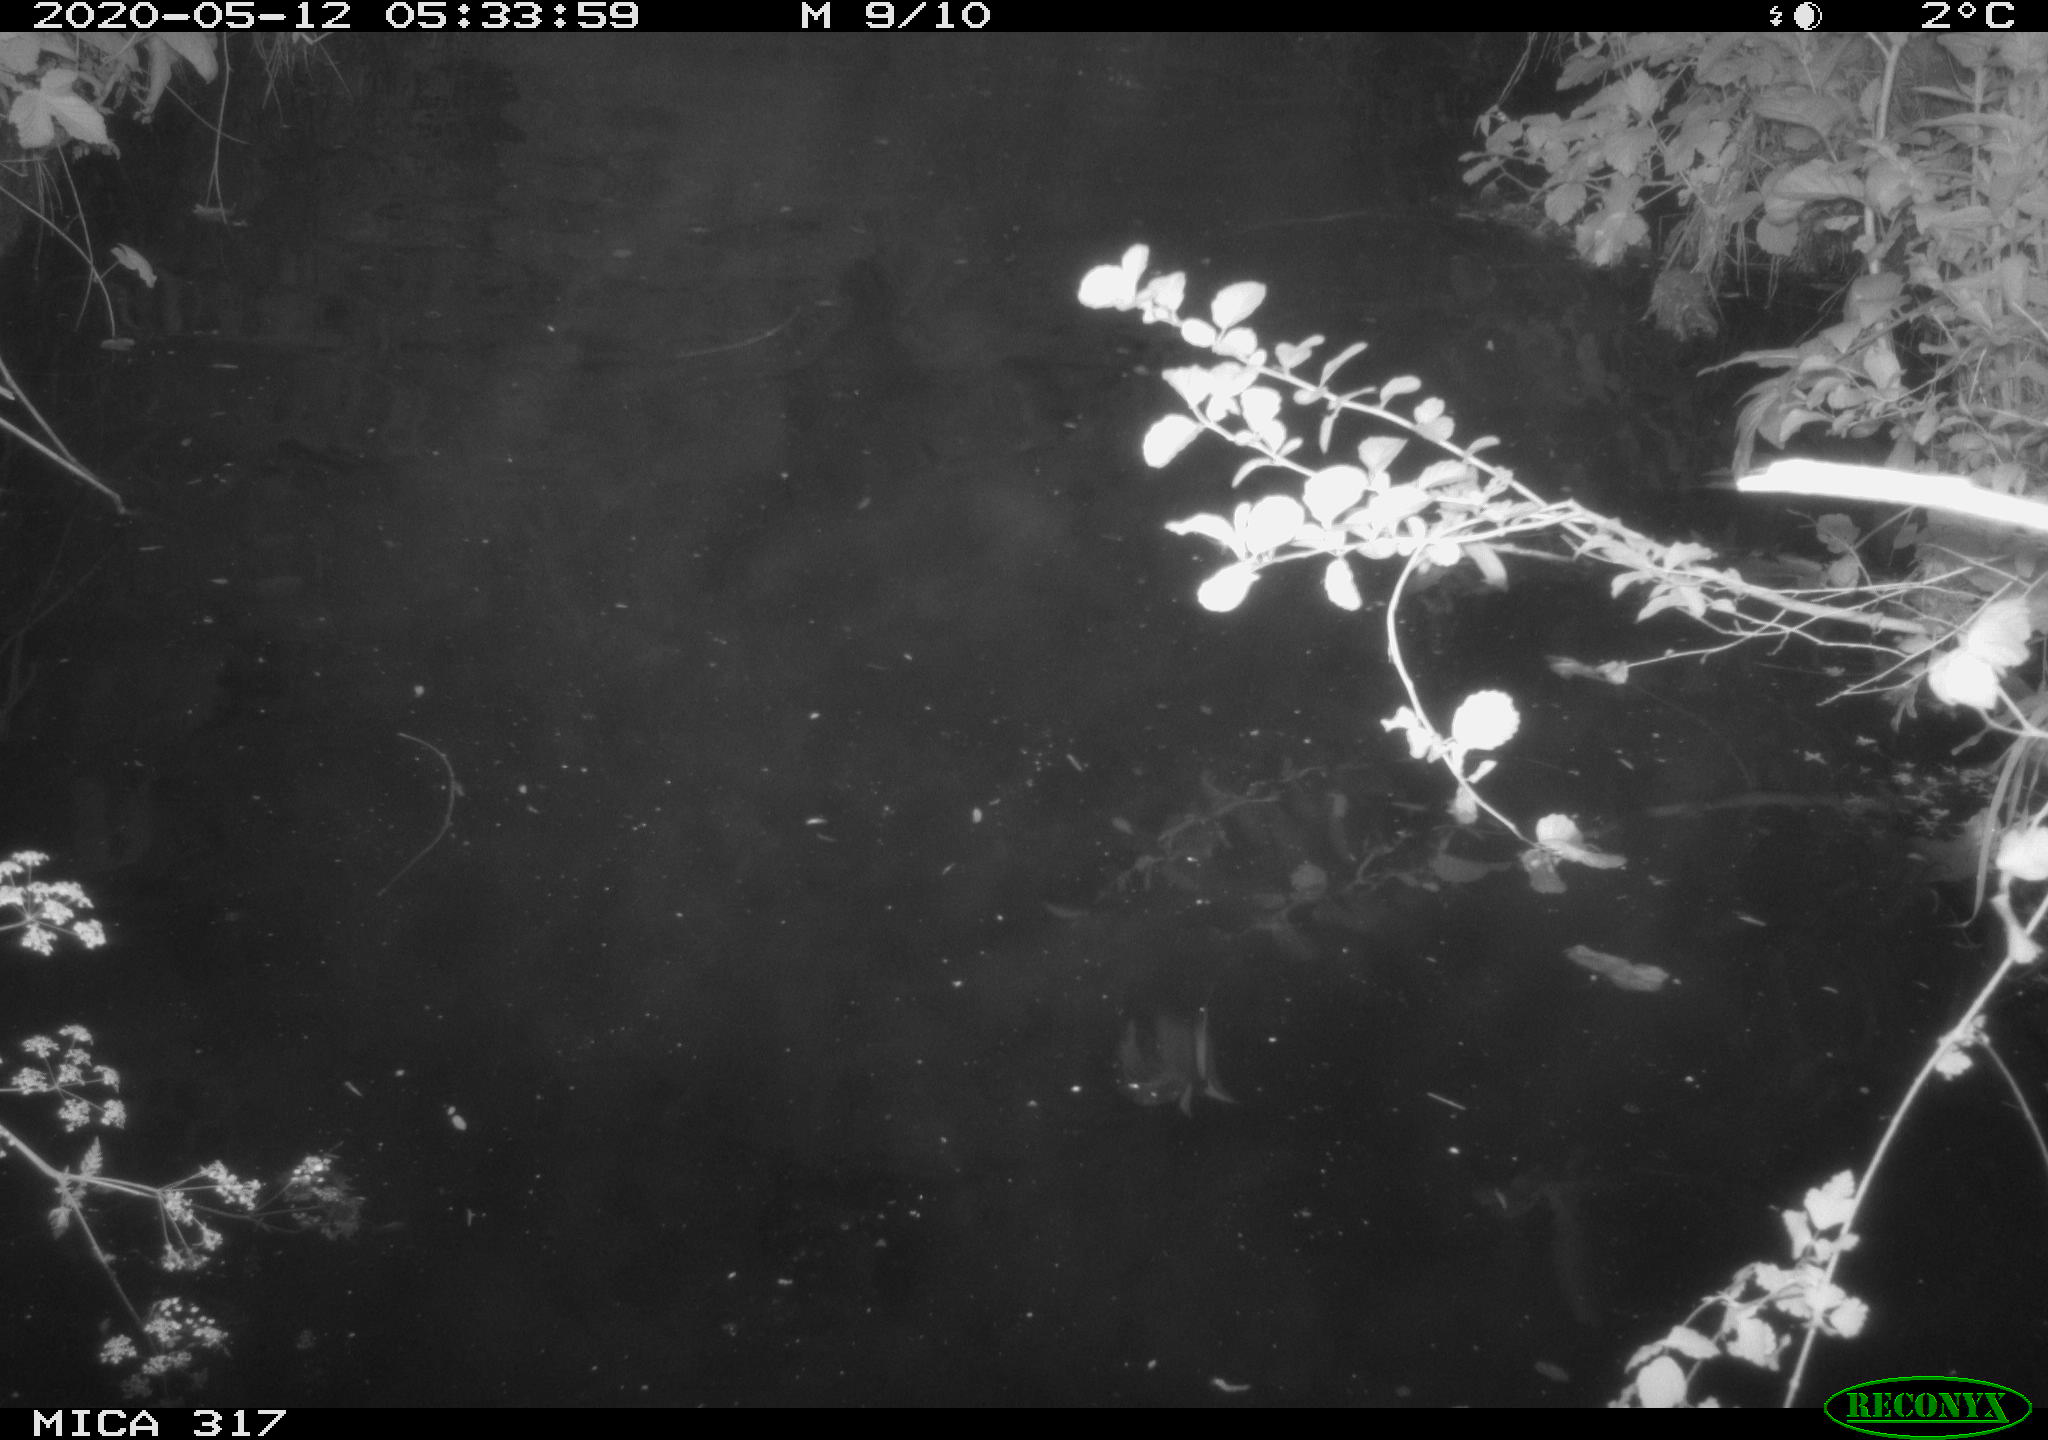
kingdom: Animalia
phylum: Chordata
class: Aves
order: Anseriformes
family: Anatidae
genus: Anas
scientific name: Anas platyrhynchos
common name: Mallard
